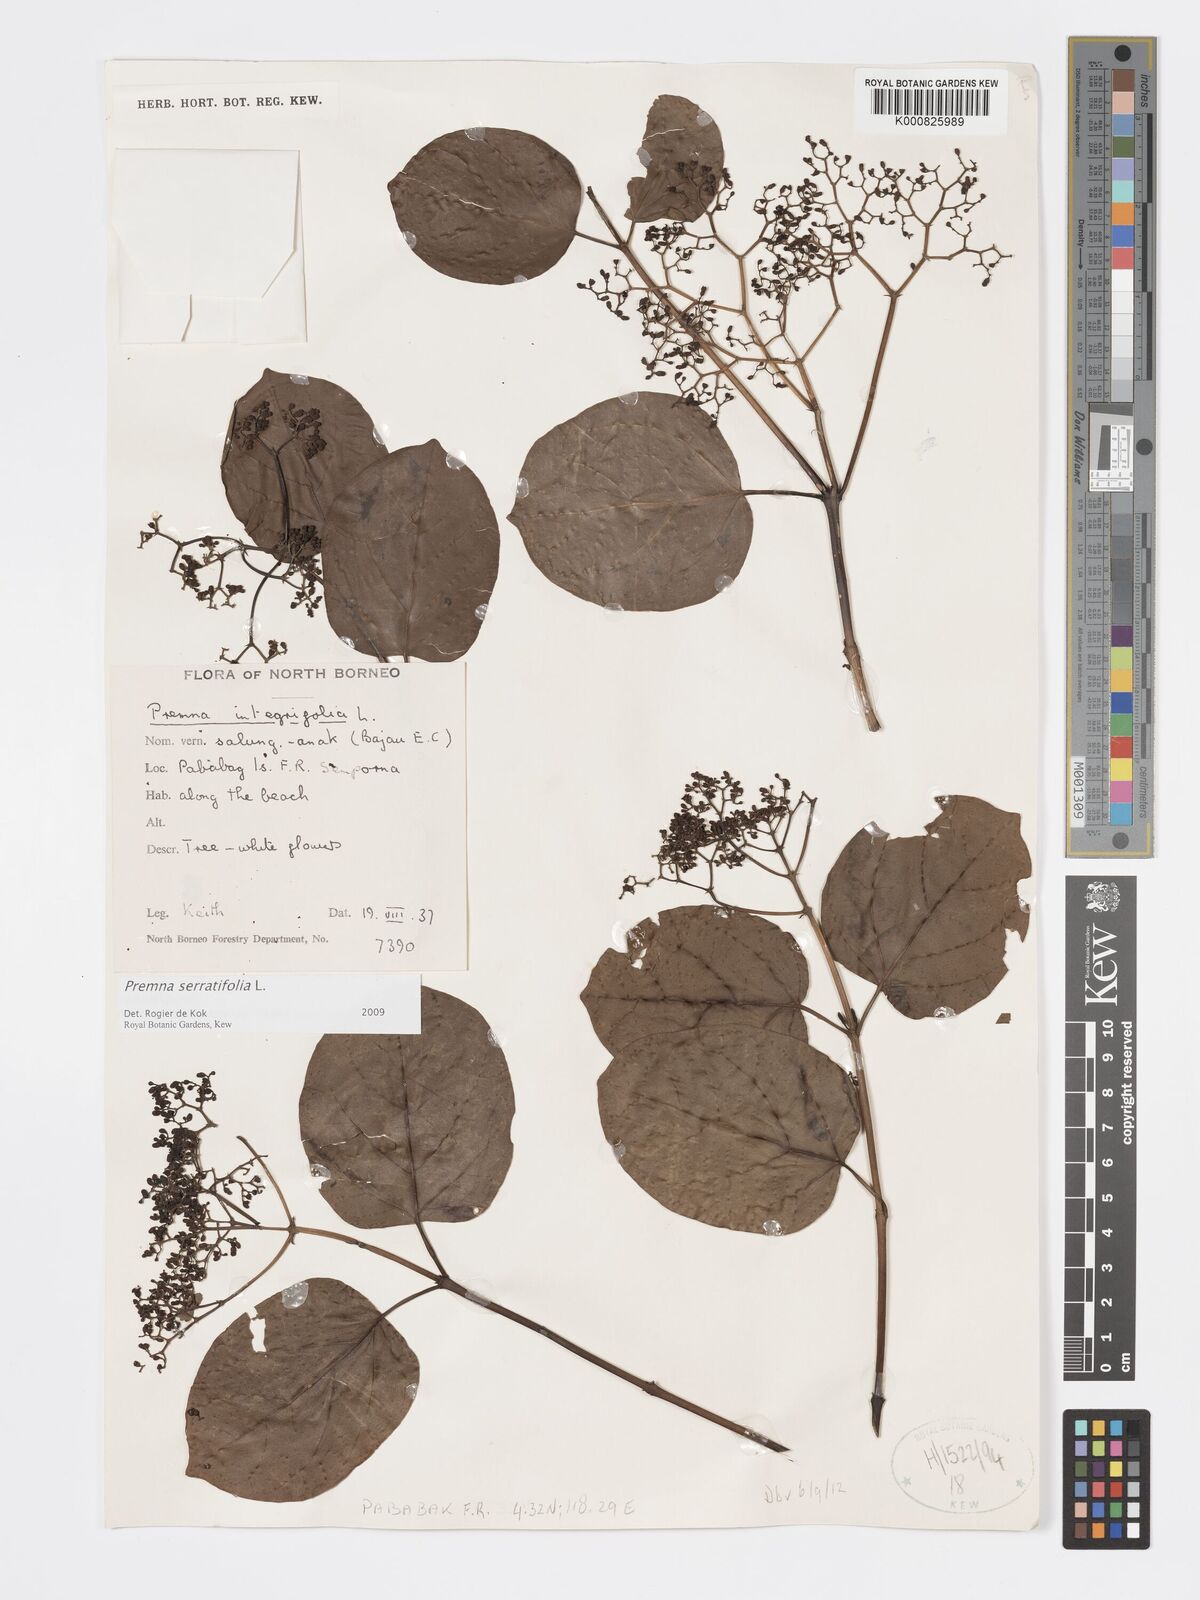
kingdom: Plantae
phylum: Tracheophyta
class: Magnoliopsida
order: Lamiales
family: Lamiaceae
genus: Premna
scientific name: Premna serratifolia
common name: Bastard guelder
